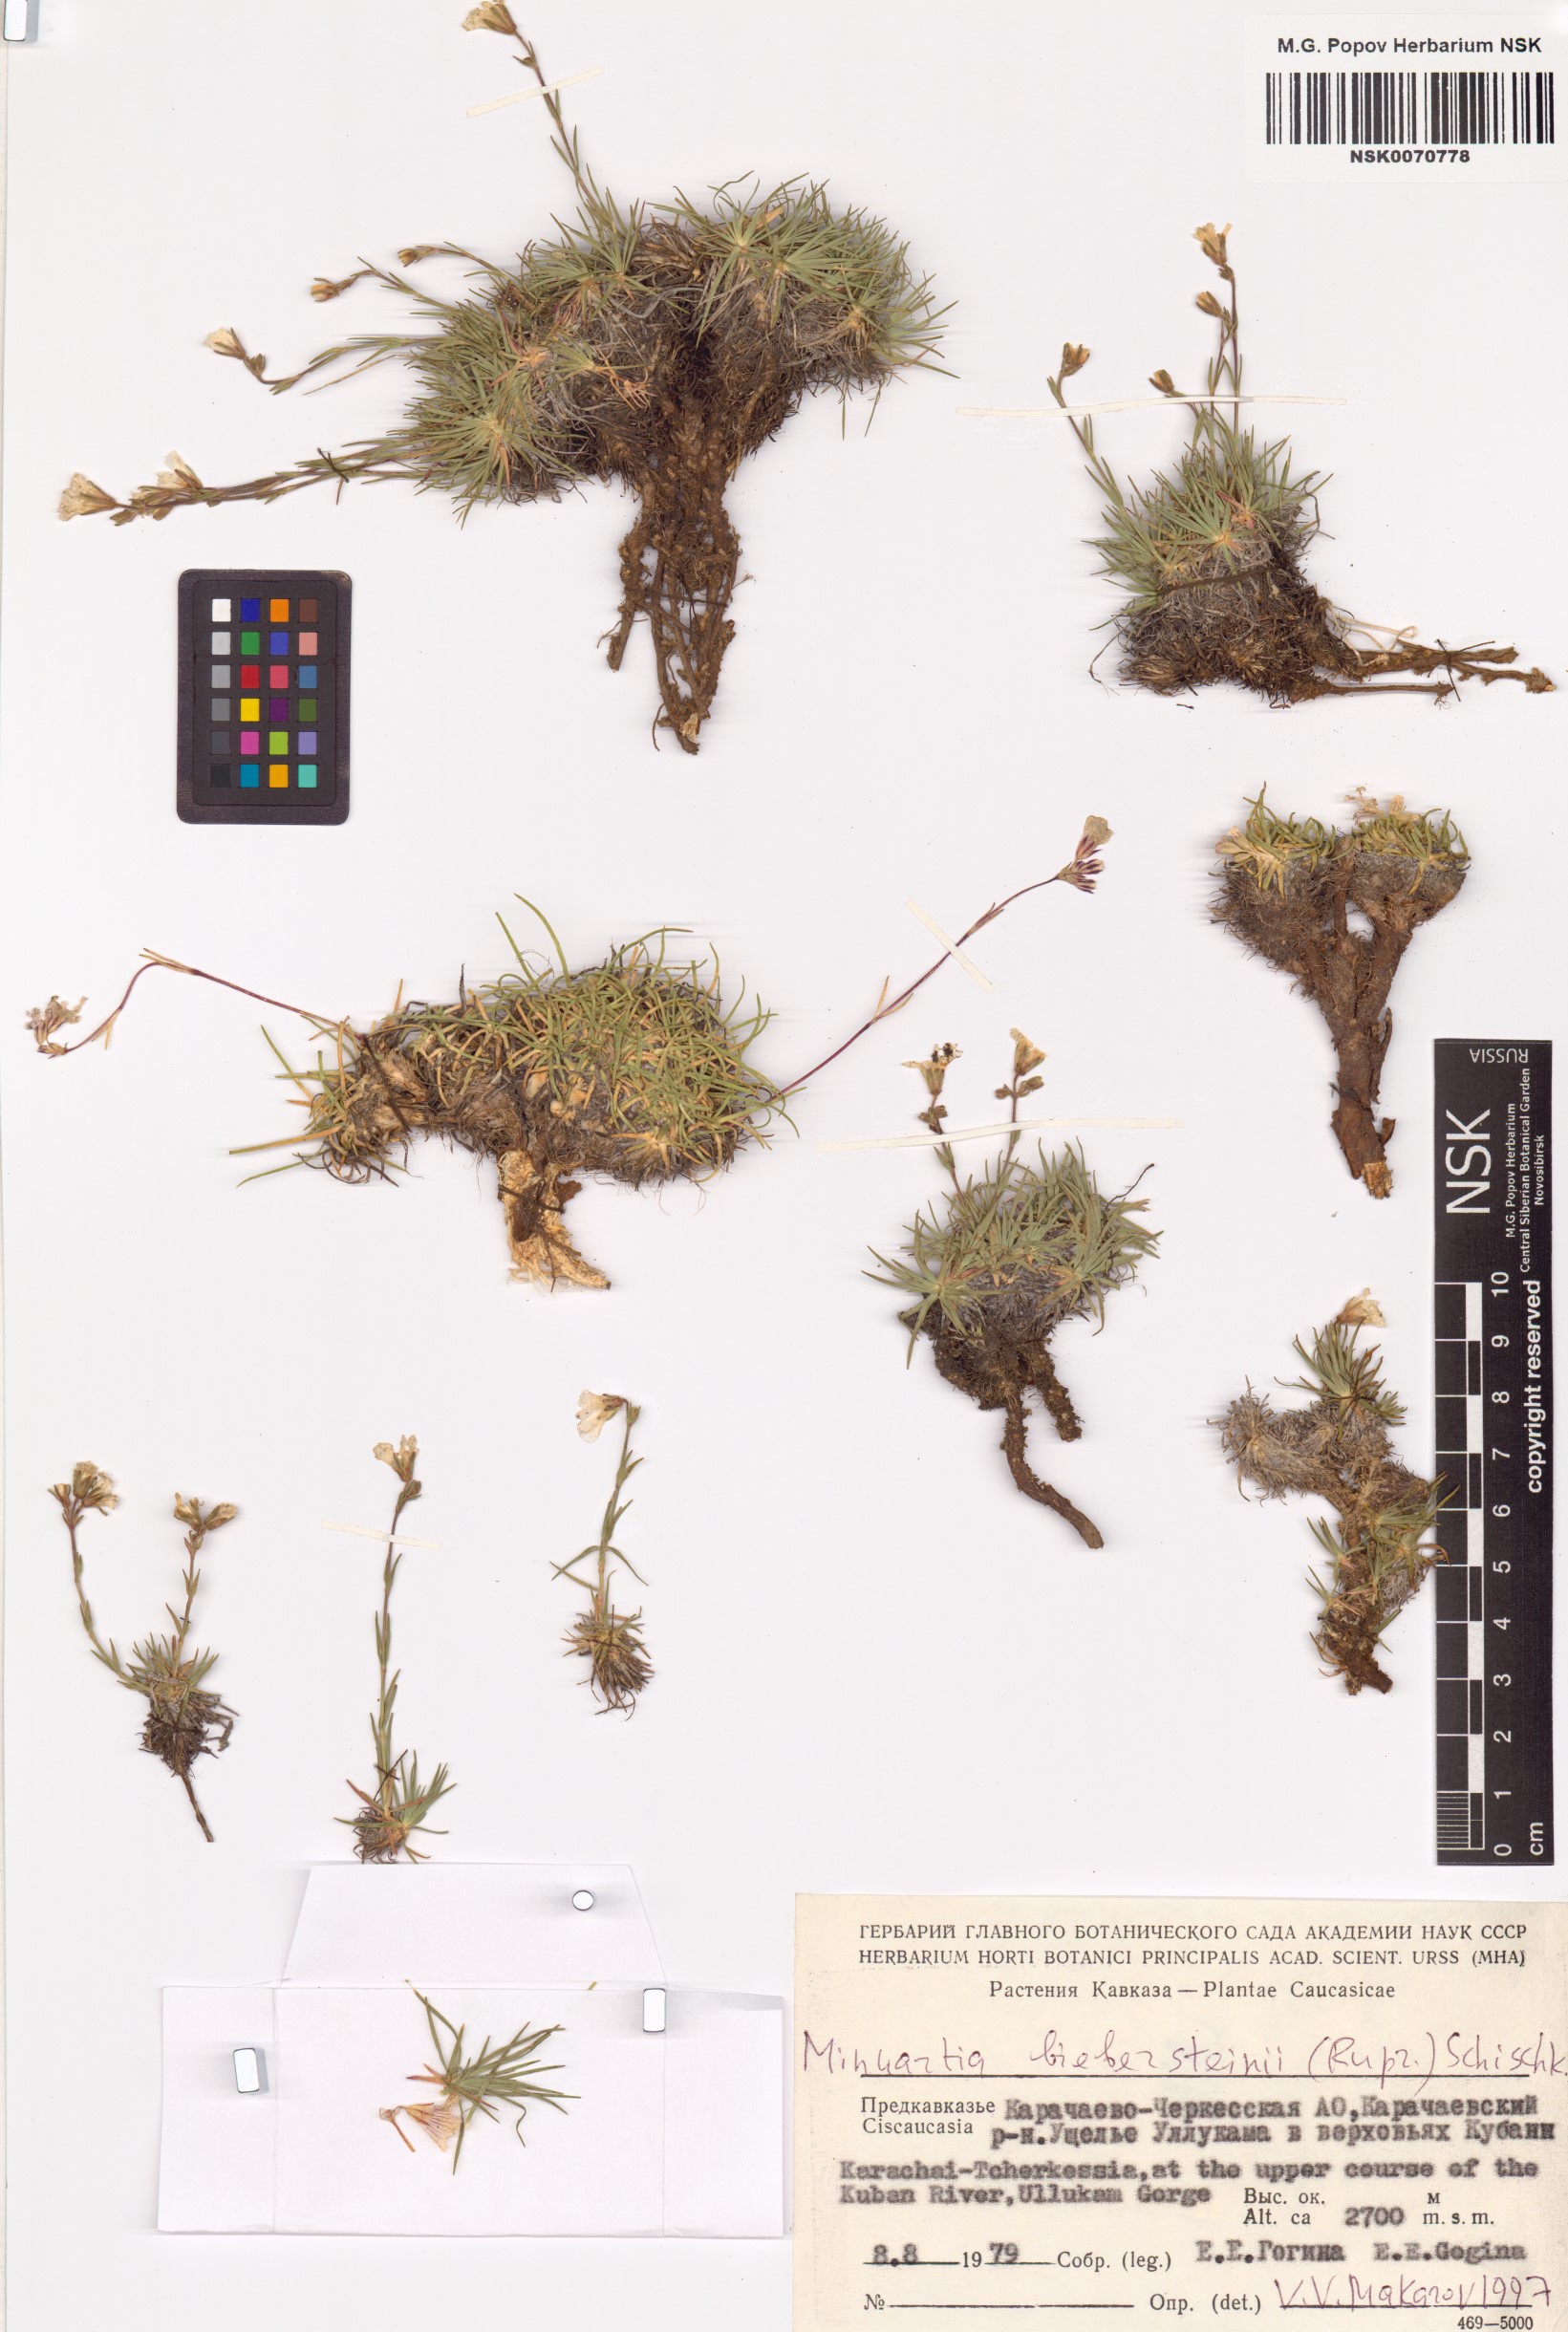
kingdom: Plantae
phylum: Tracheophyta
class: Magnoliopsida
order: Caryophyllales
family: Caryophyllaceae
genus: Sabulina
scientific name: Sabulina biebersteinii
